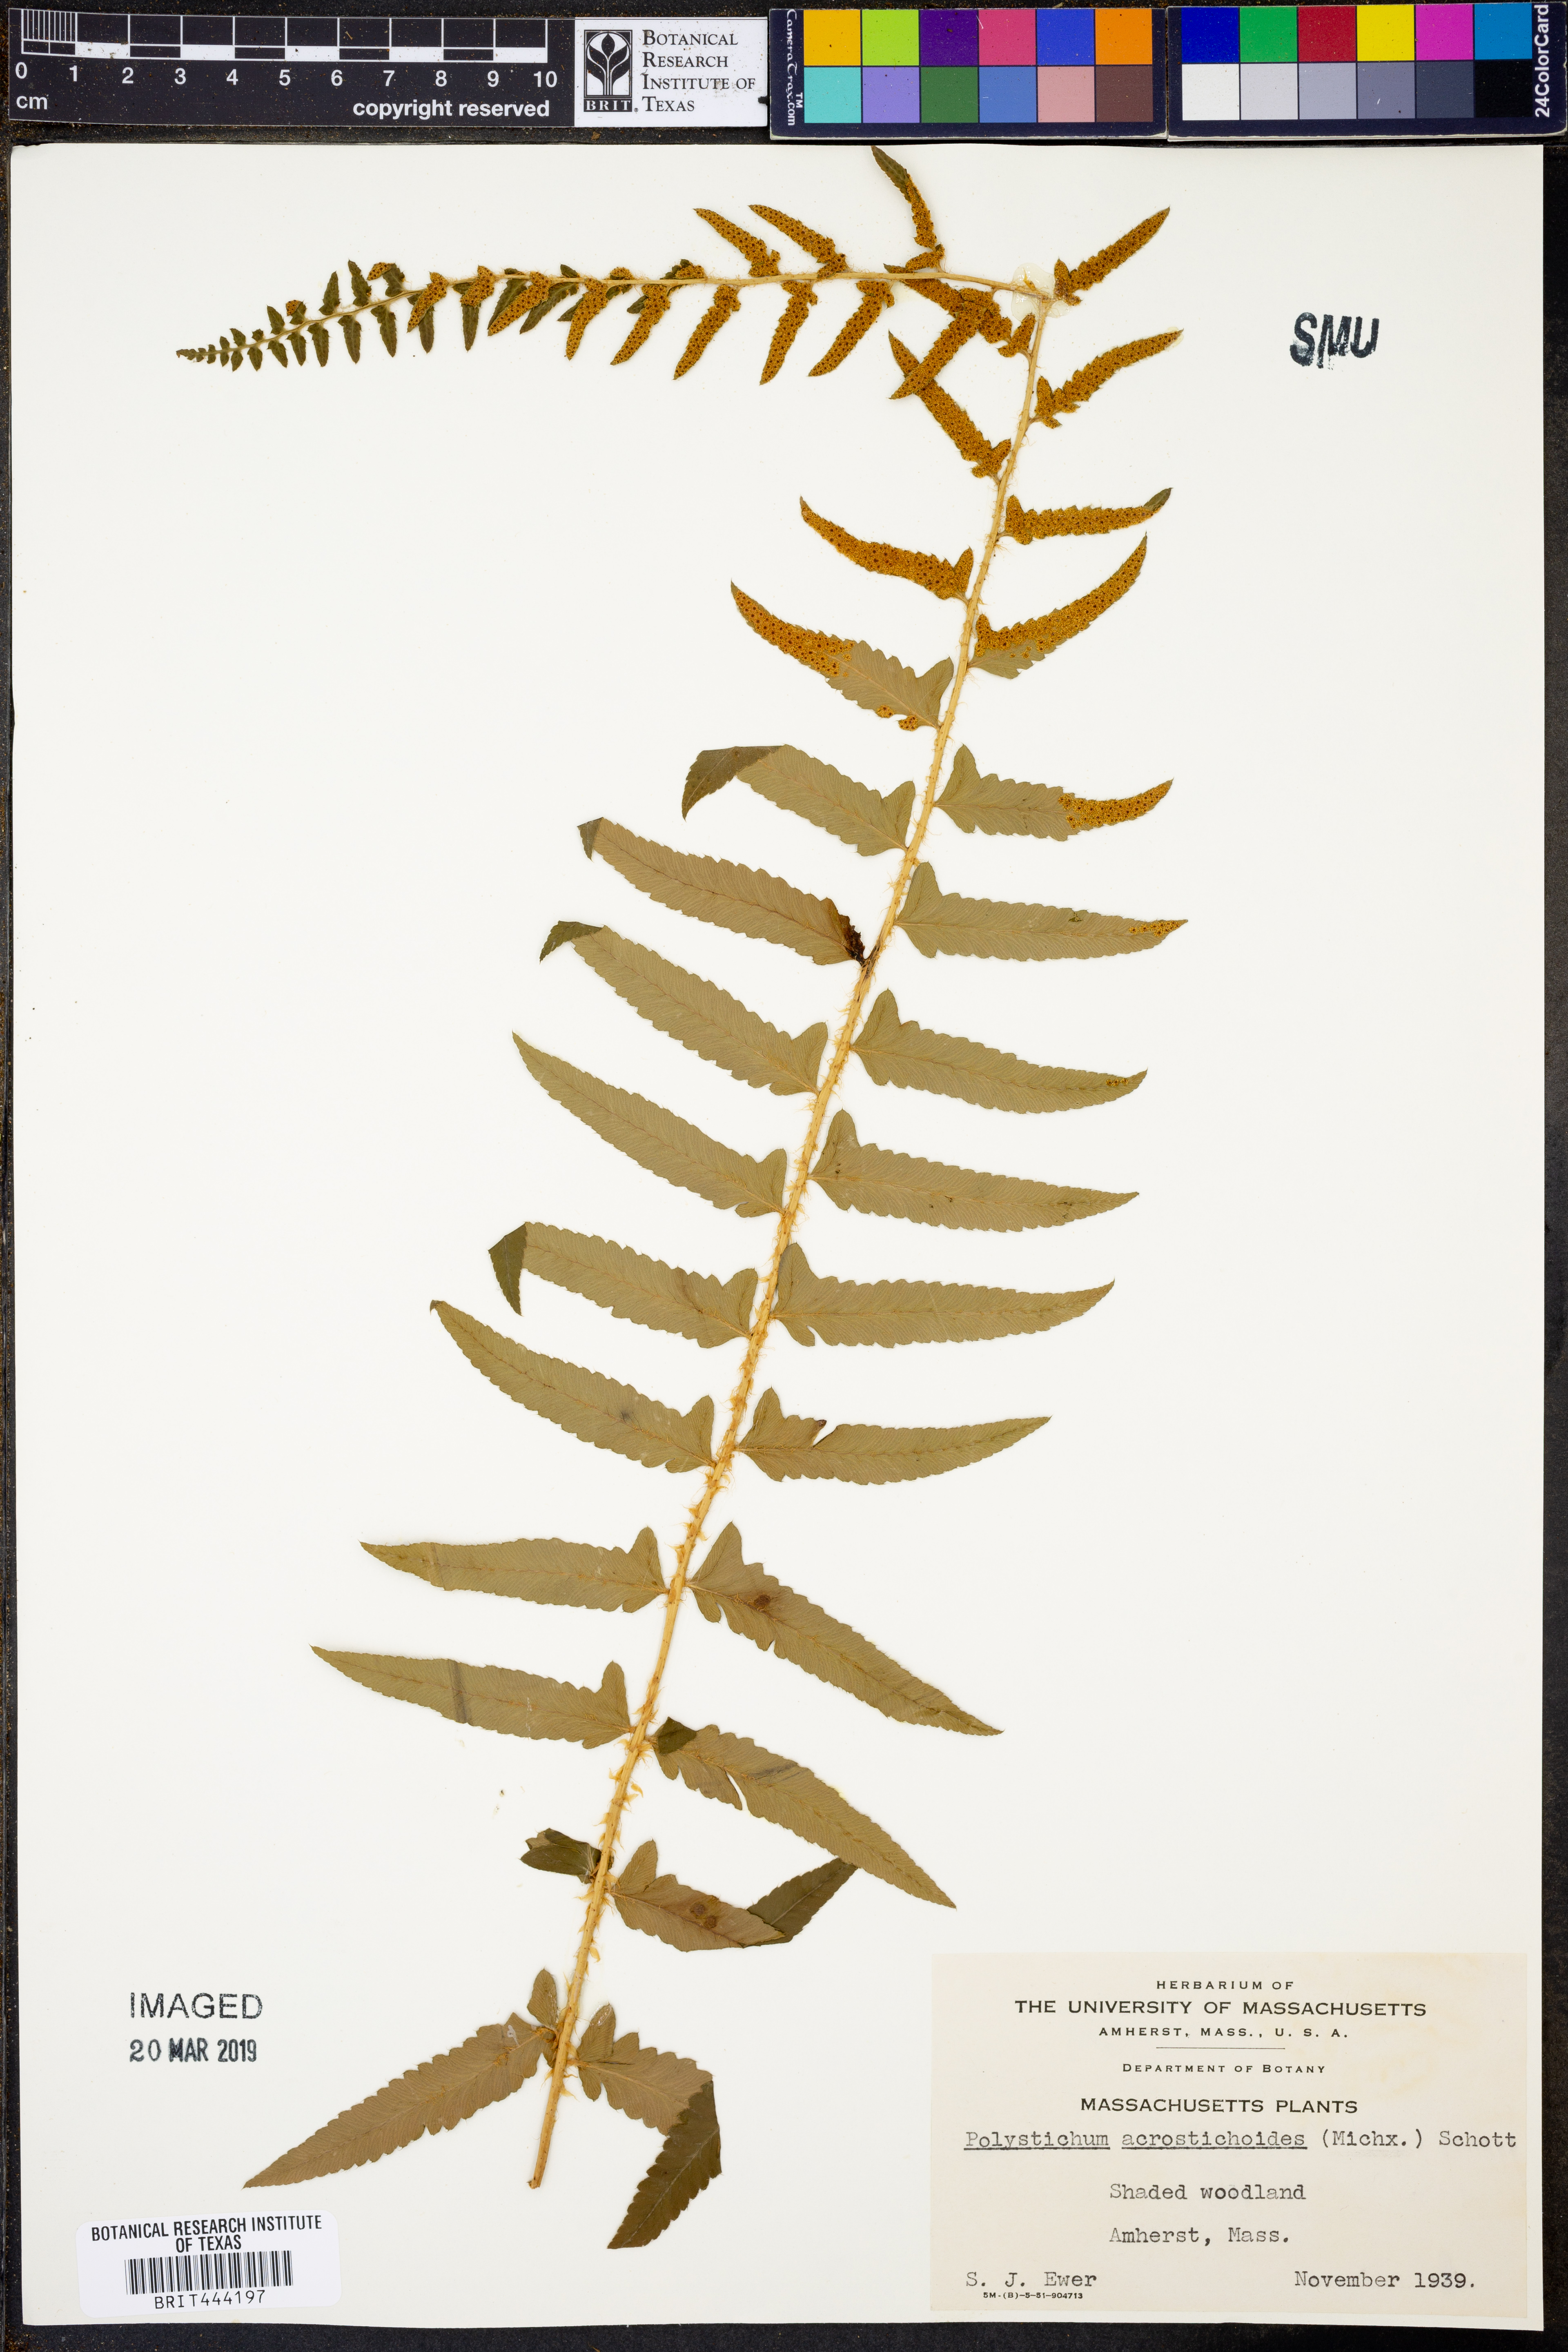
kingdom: Plantae
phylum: Tracheophyta
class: Polypodiopsida
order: Polypodiales
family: Dryopteridaceae
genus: Polystichum
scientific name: Polystichum acrostichoides
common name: Christmas fern
